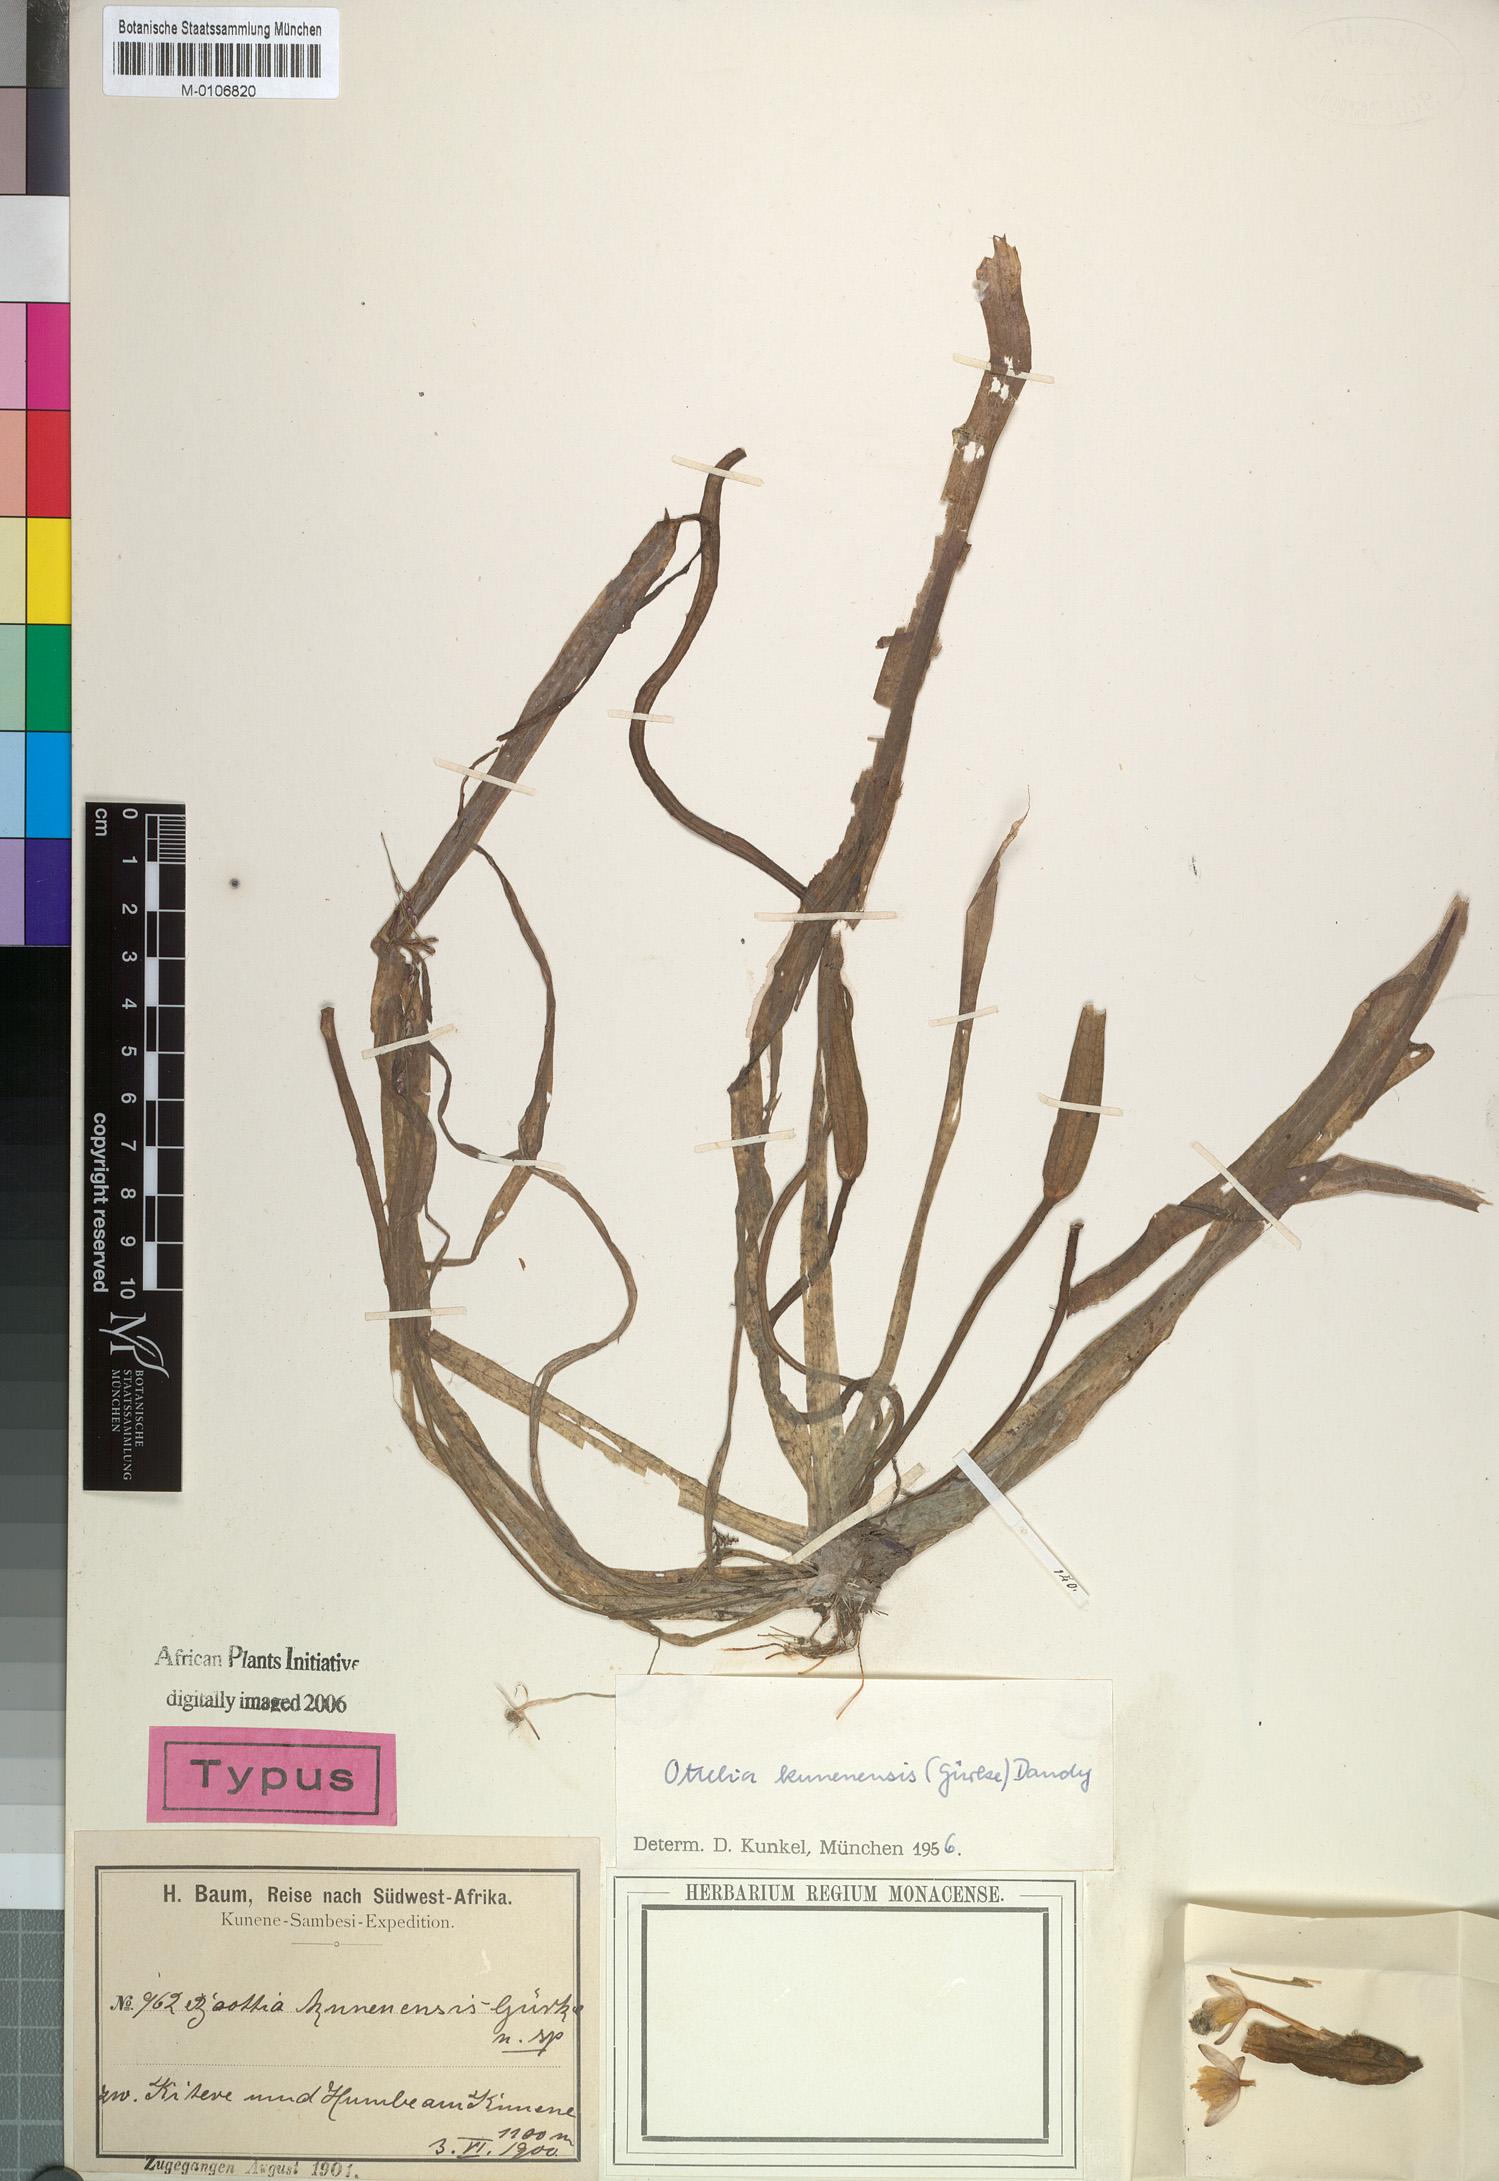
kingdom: Plantae
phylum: Tracheophyta
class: Liliopsida
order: Alismatales
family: Hydrocharitaceae
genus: Ottelia
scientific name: Ottelia kunenensis
